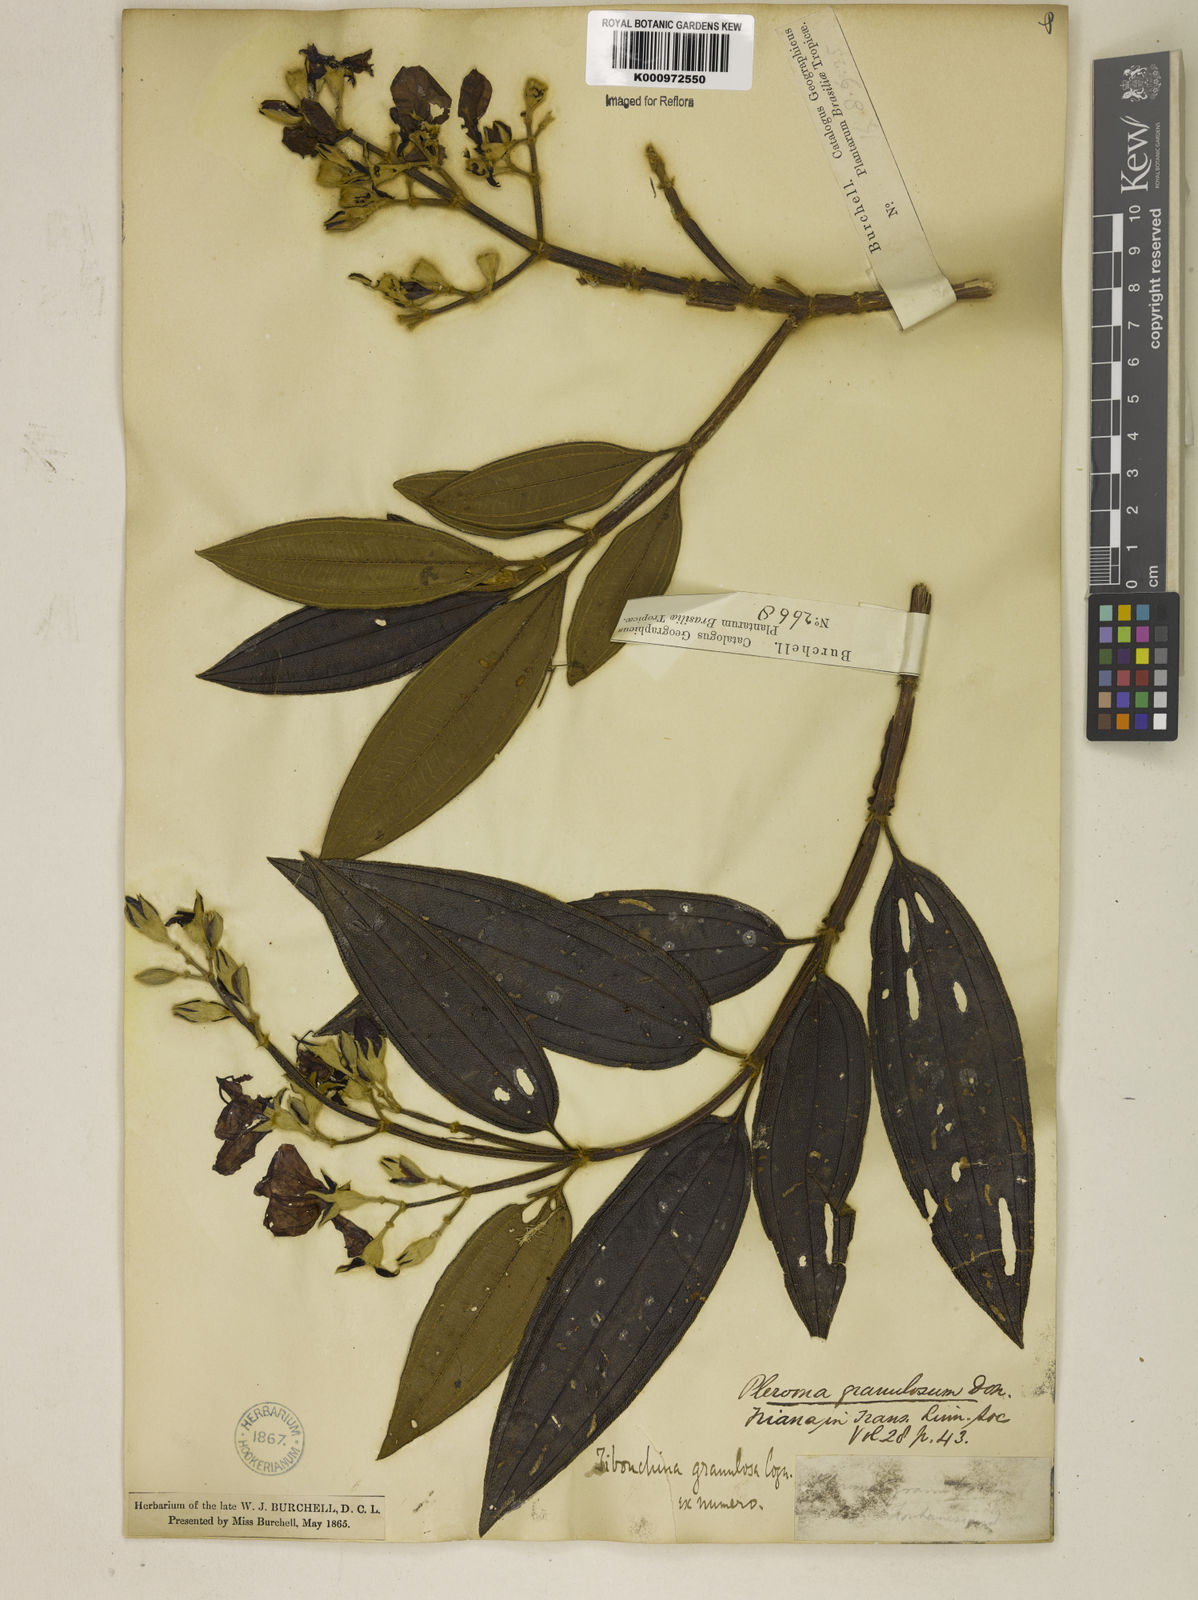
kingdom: Plantae
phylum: Tracheophyta
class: Magnoliopsida
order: Myrtales
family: Melastomataceae
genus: Pleroma
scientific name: Pleroma granulosum
